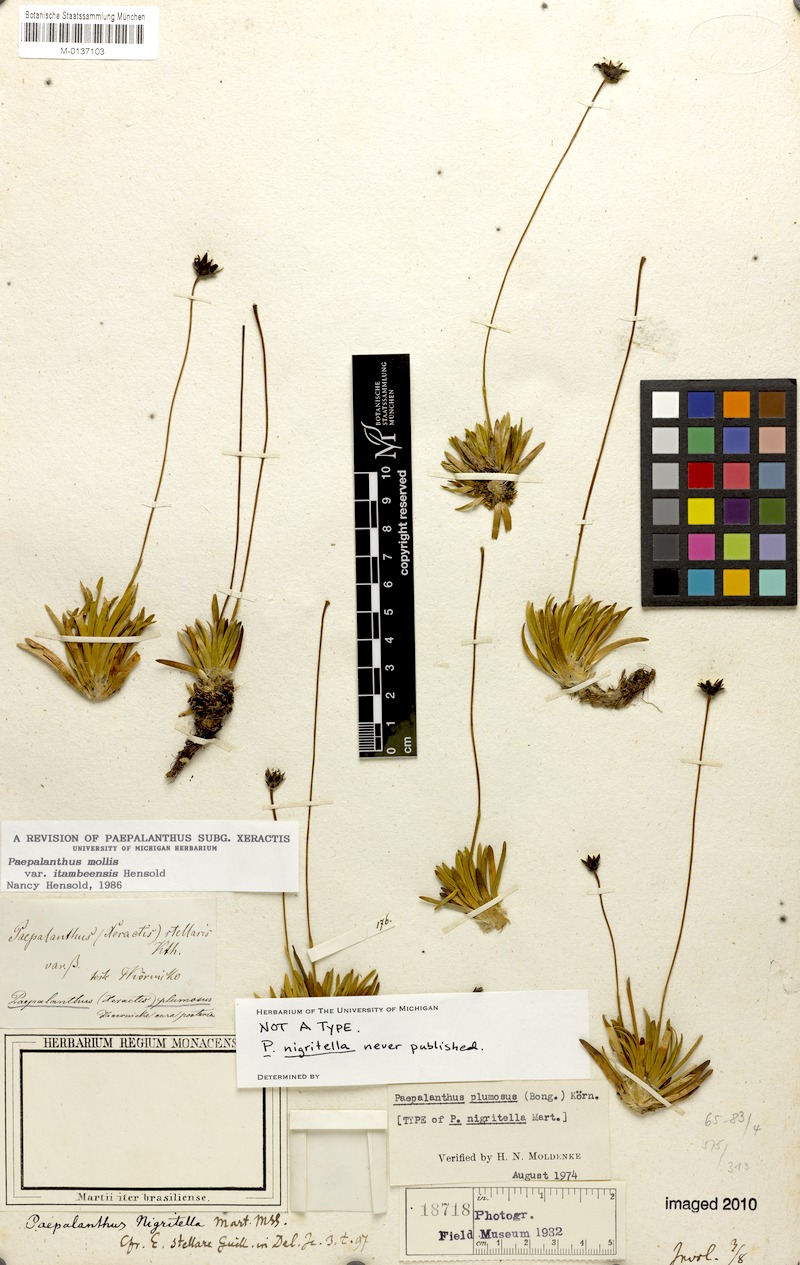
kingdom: Plantae
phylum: Tracheophyta
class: Liliopsida
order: Poales
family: Eriocaulaceae
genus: Paepalanthus
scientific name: Paepalanthus mollis
